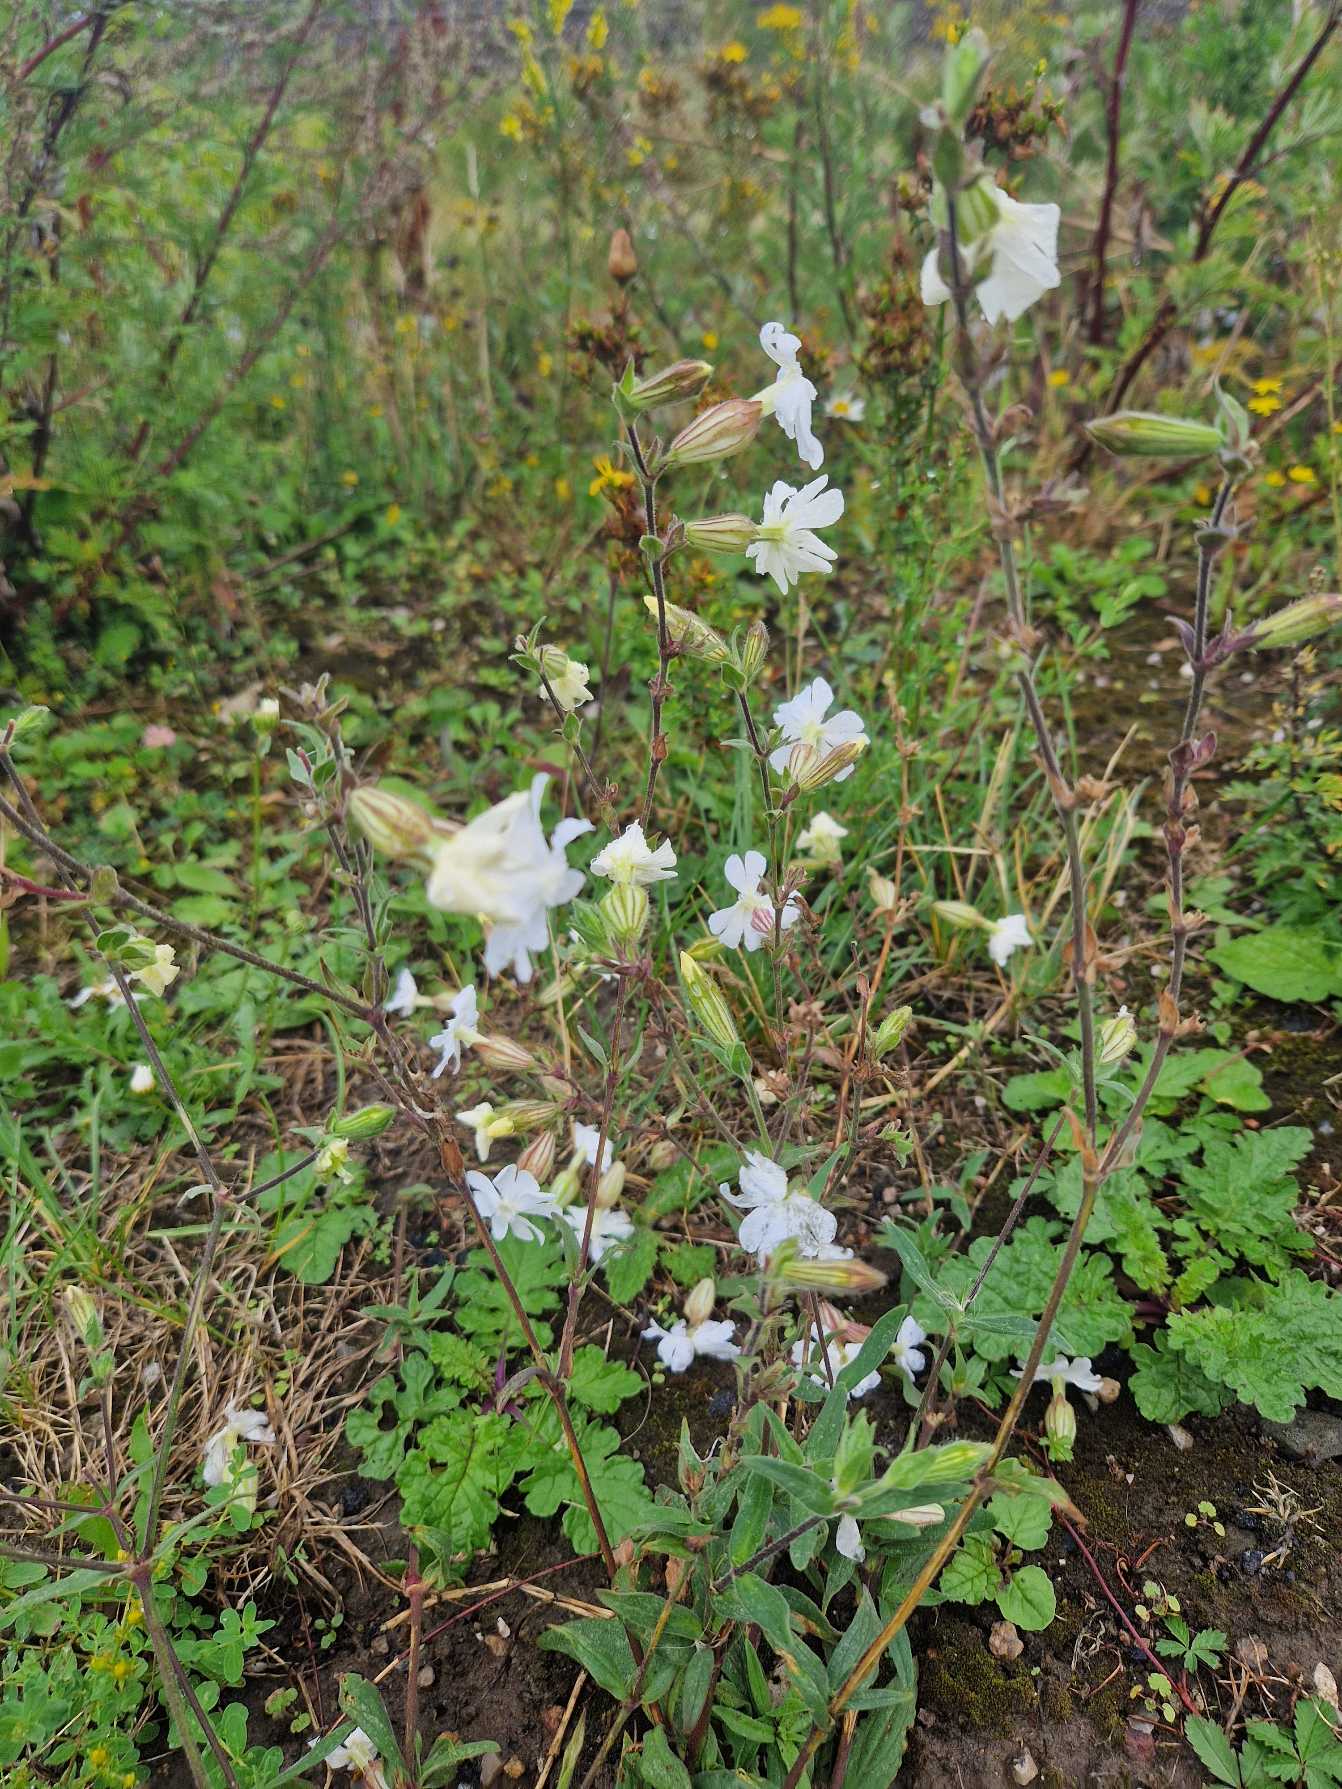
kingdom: Plantae
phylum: Tracheophyta
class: Magnoliopsida
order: Caryophyllales
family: Caryophyllaceae
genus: Silene
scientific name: Silene latifolia
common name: Aftenpragtstjerne
